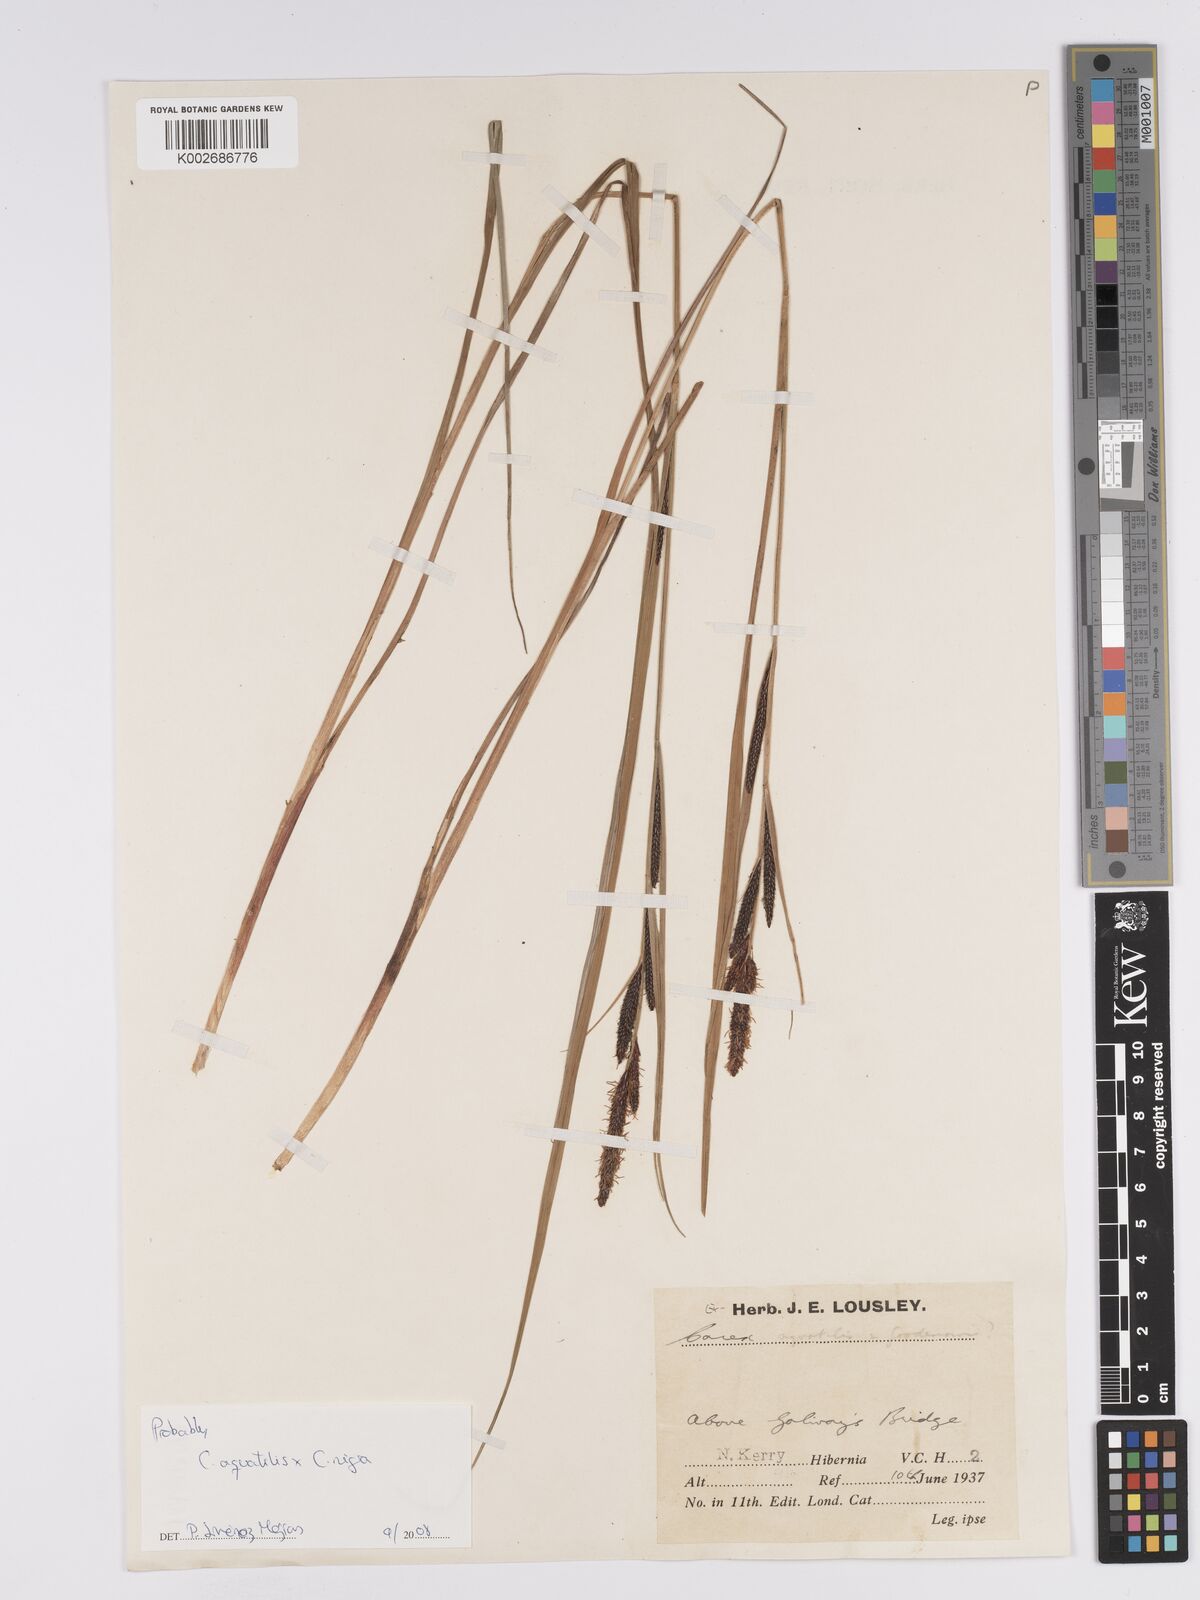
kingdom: Plantae
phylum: Tracheophyta
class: Liliopsida
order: Poales
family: Cyperaceae
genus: Carex
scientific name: Carex microcarpa
